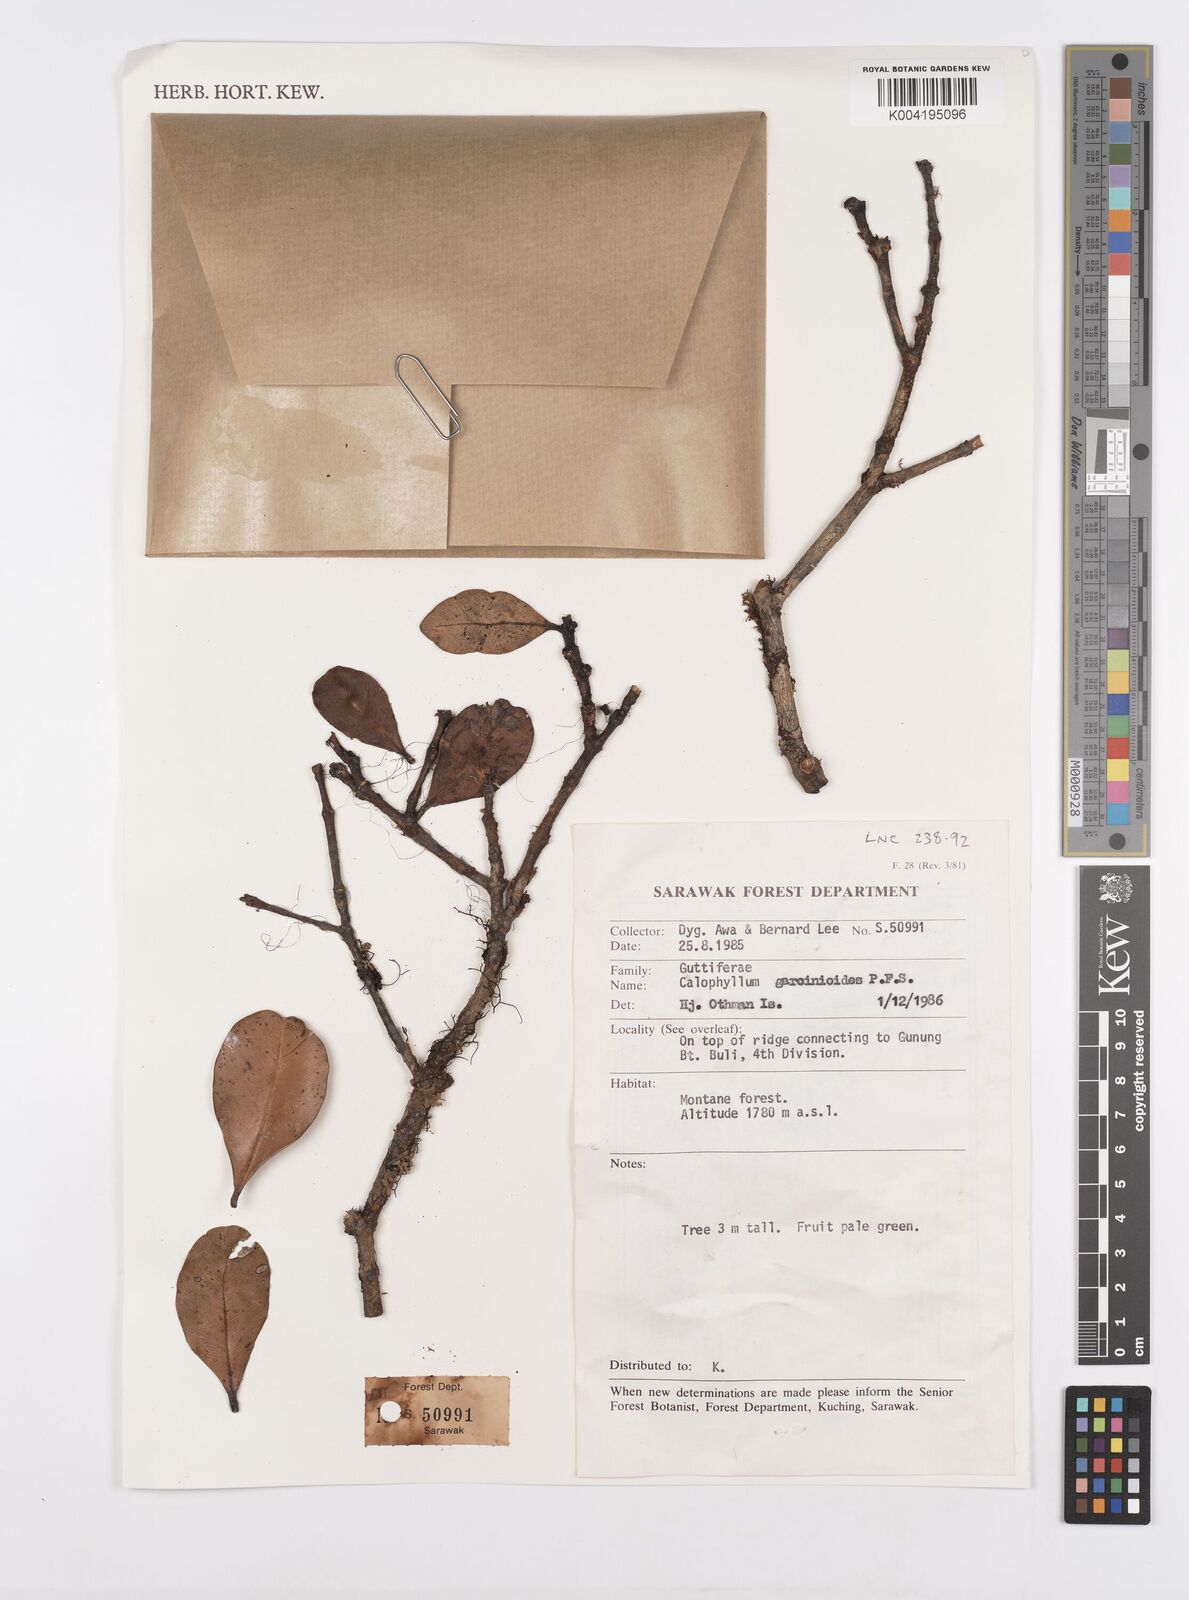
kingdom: Plantae
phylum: Tracheophyta
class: Magnoliopsida
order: Malpighiales
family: Calophyllaceae
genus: Calophyllum
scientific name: Calophyllum garcinioides
